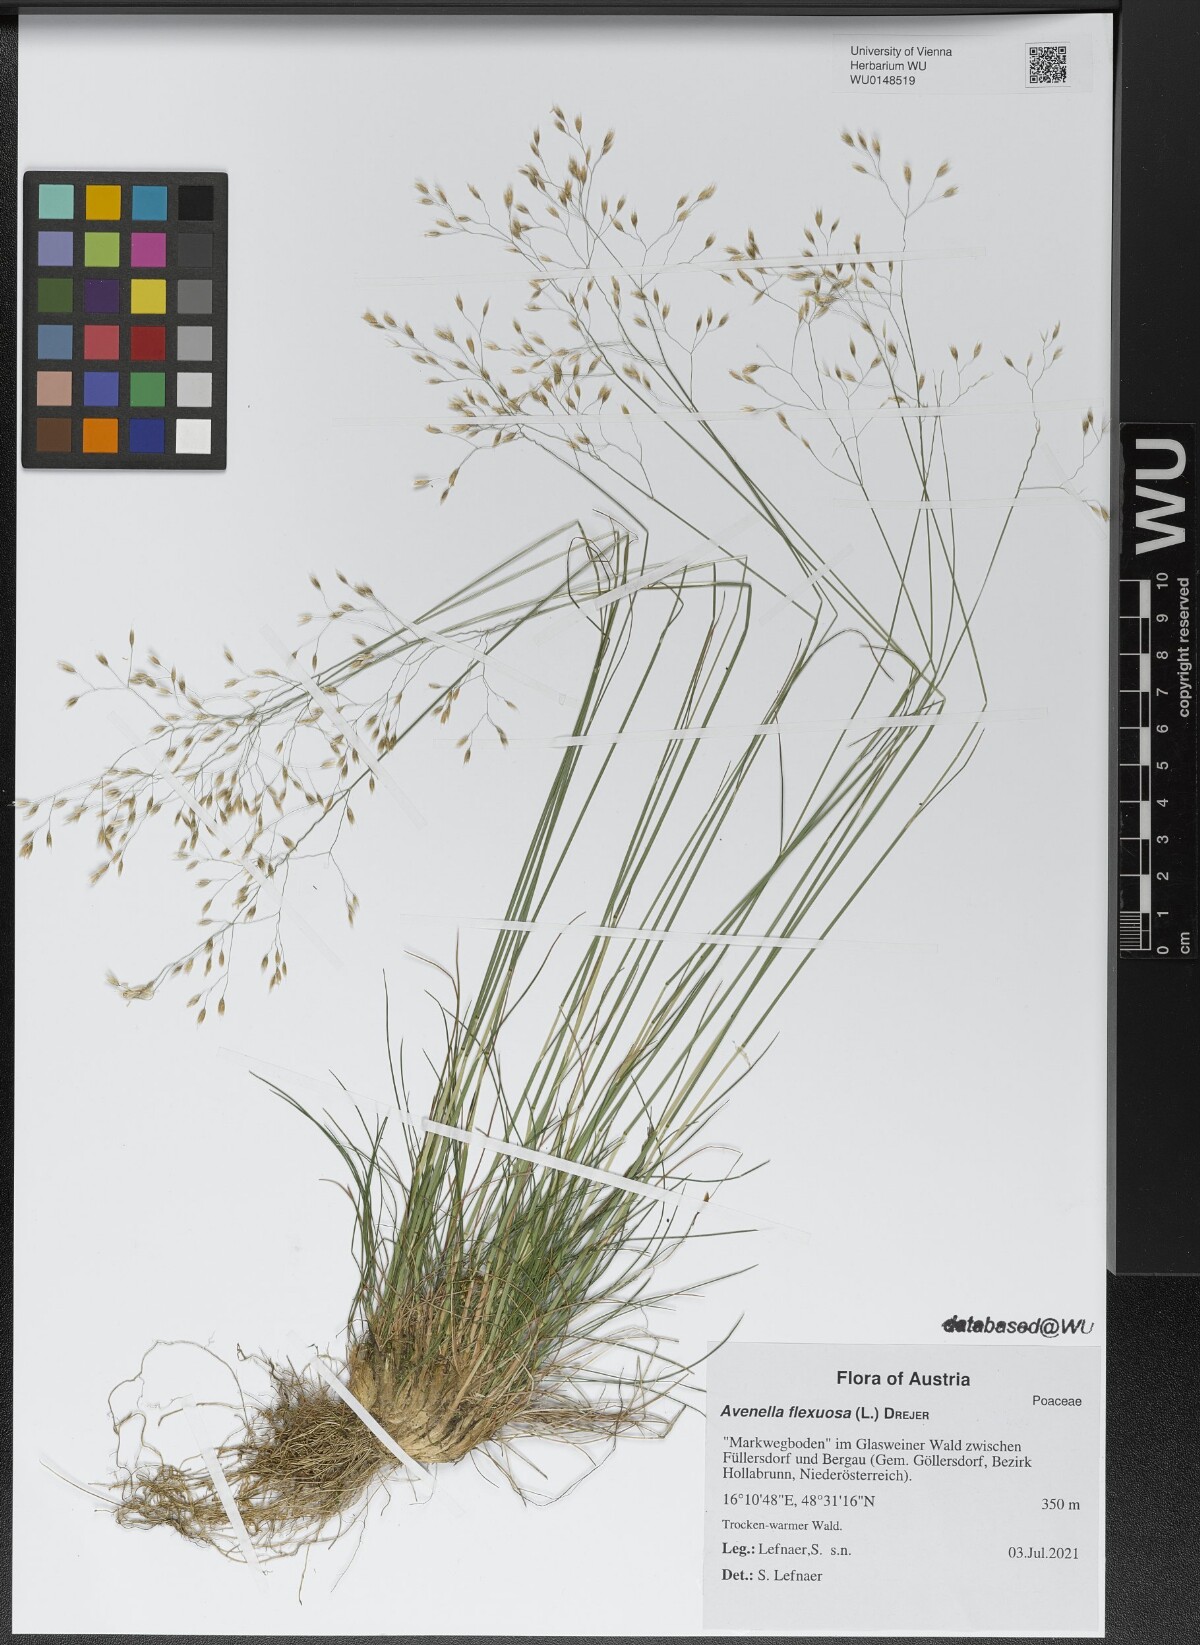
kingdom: Plantae
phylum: Tracheophyta
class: Liliopsida
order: Poales
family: Poaceae
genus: Avenella
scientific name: Avenella flexuosa
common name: Wavy hairgrass
